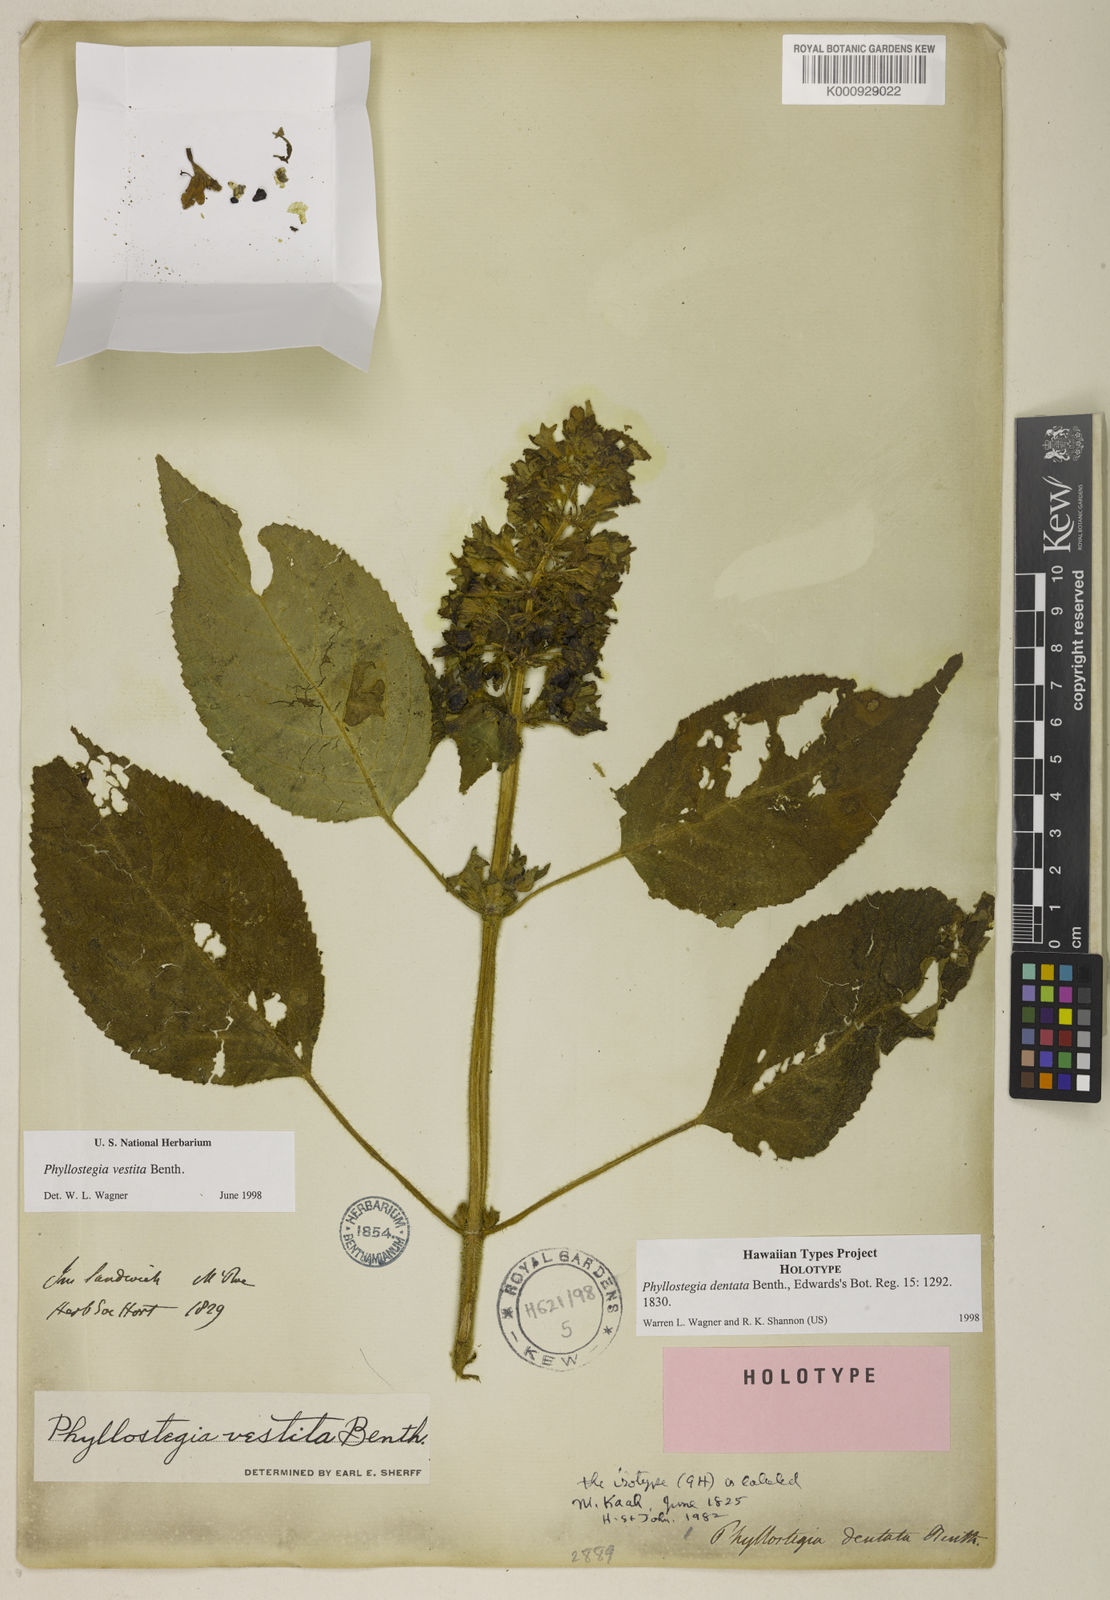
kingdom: Plantae
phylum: Tracheophyta
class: Magnoliopsida
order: Lamiales
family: Lamiaceae
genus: Phyllostegia
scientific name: Phyllostegia vestita
